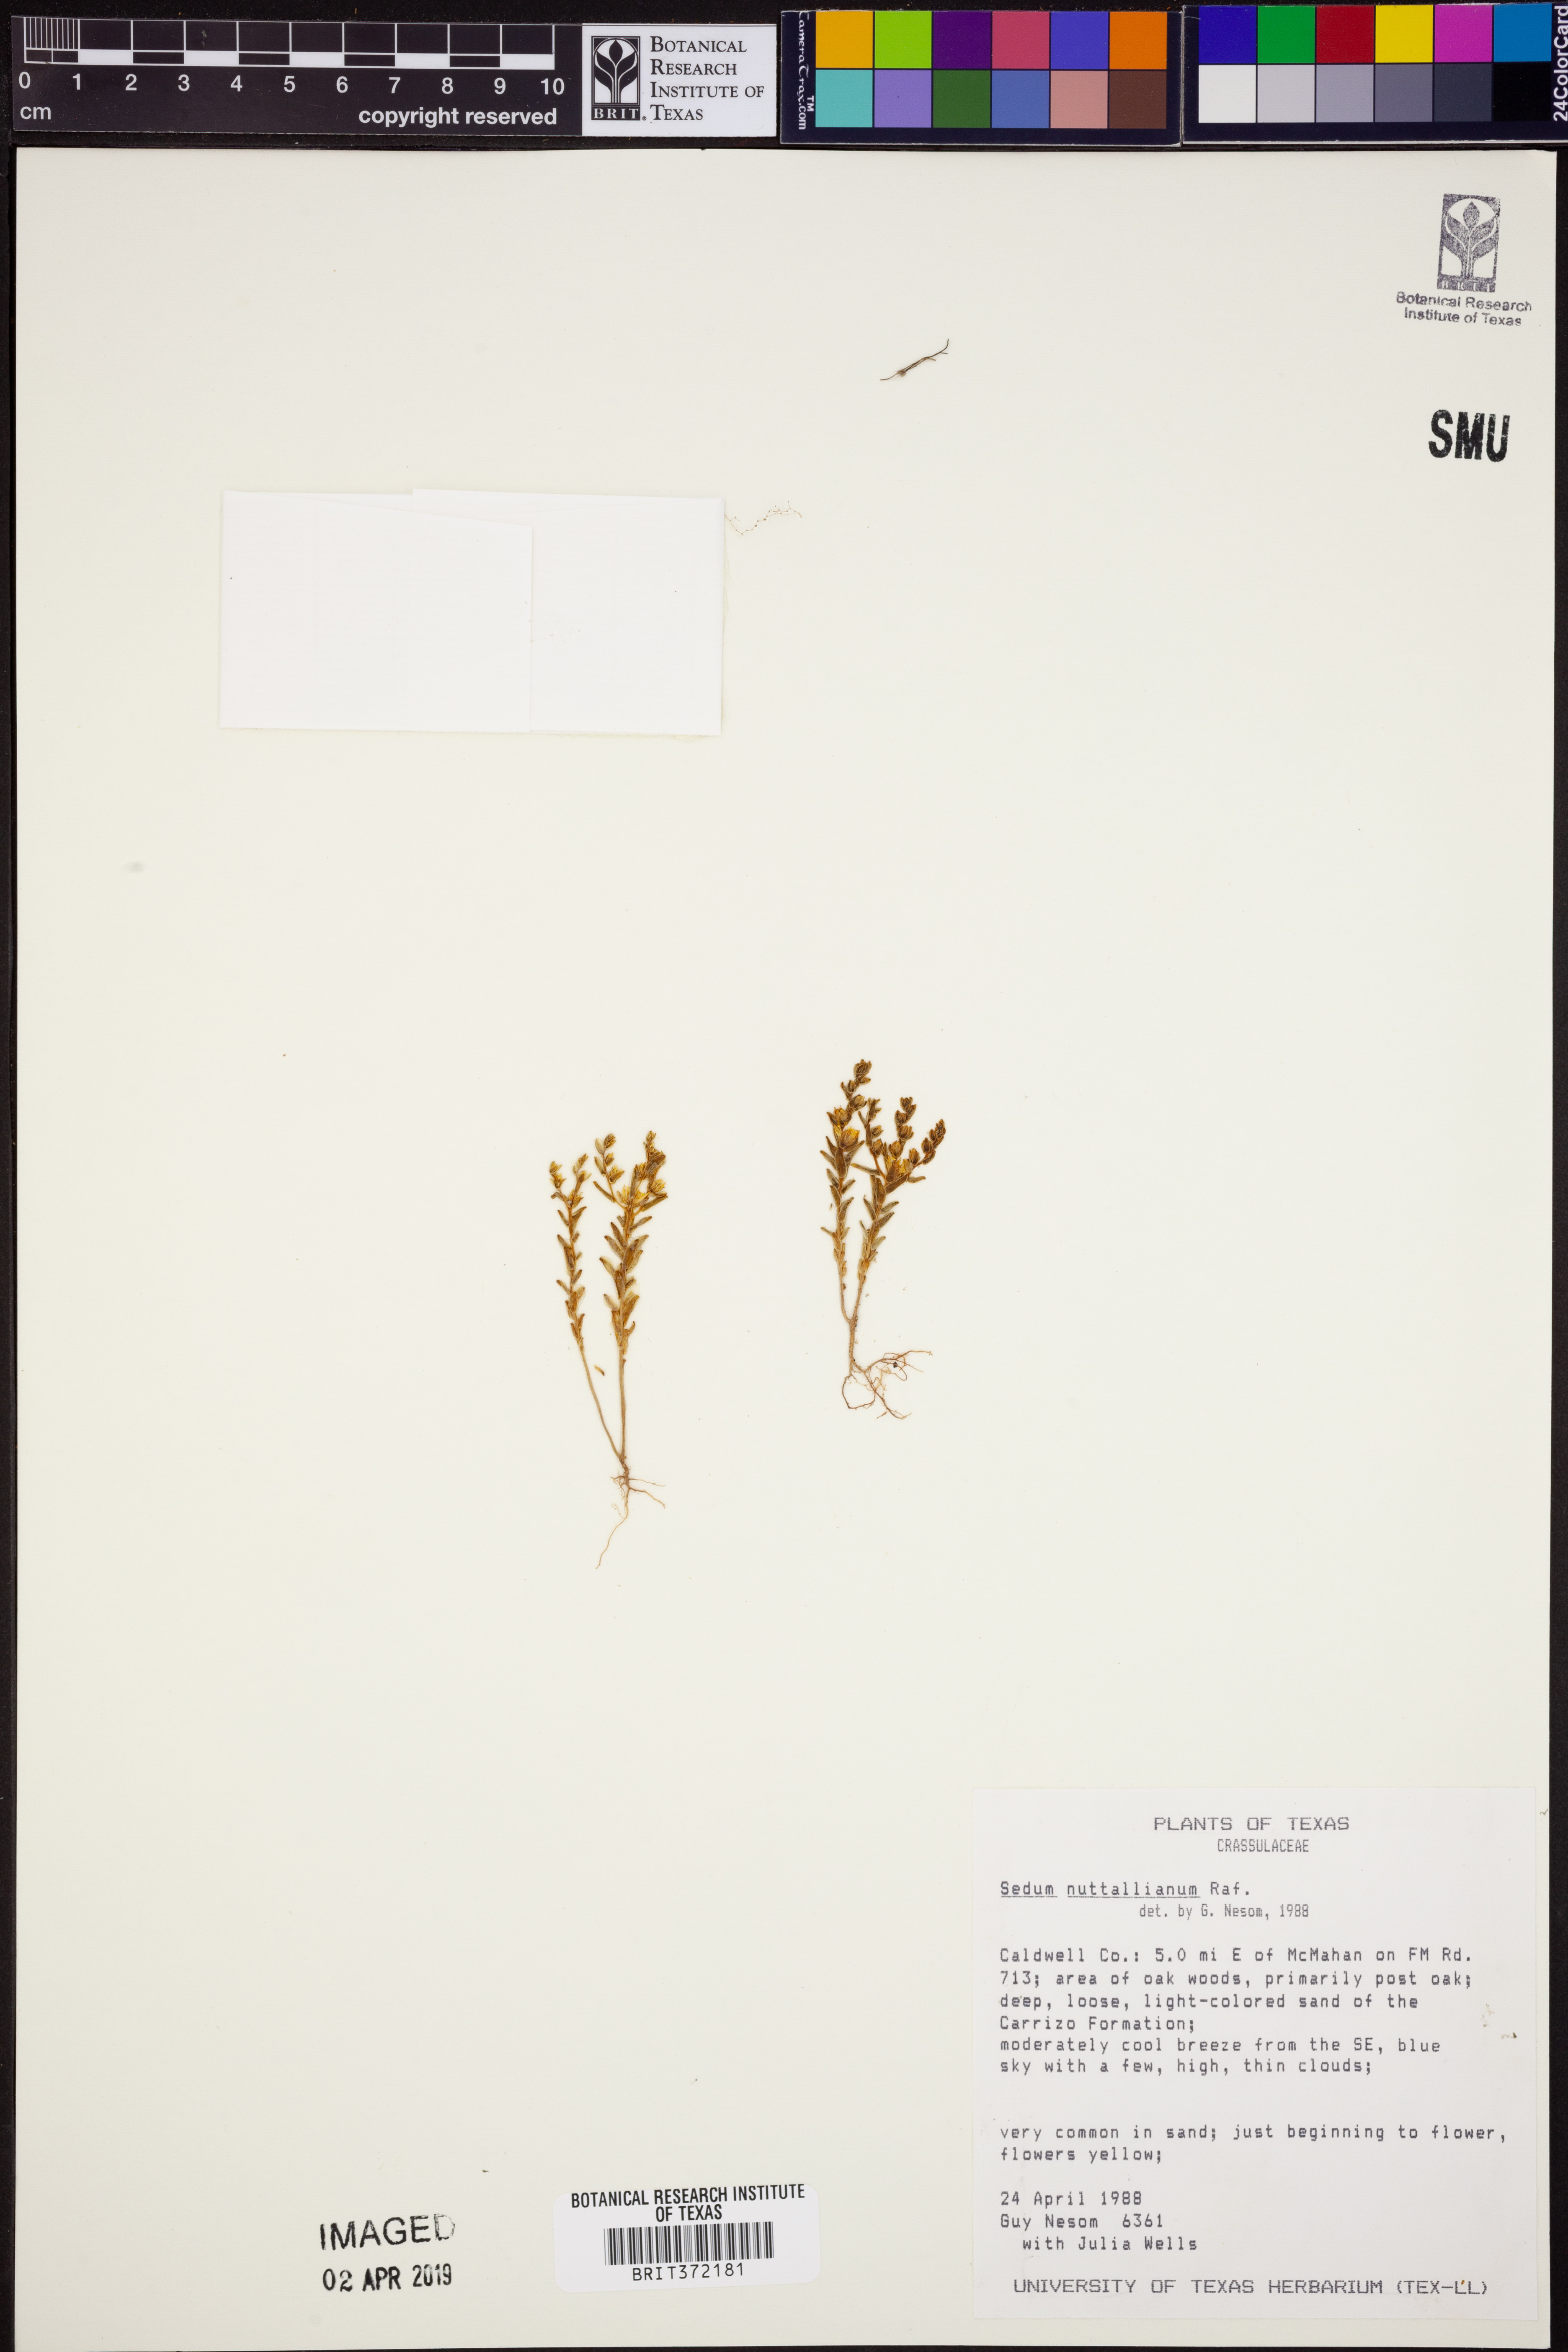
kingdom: Plantae
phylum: Tracheophyta
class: Magnoliopsida
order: Saxifragales
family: Crassulaceae
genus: Sedum
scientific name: Sedum nuttallii
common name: Yellow stonecrop
